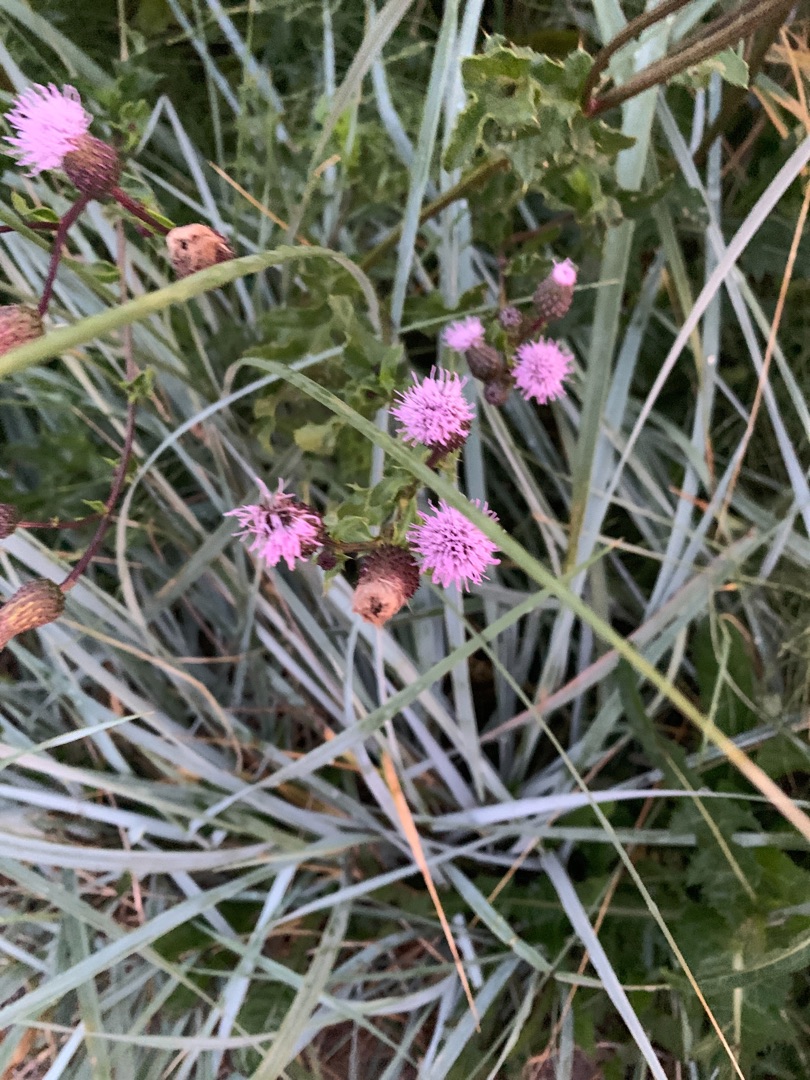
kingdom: Plantae
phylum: Tracheophyta
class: Magnoliopsida
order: Asterales
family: Asteraceae
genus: Cirsium
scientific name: Cirsium arvense
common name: Ager-tidsel
